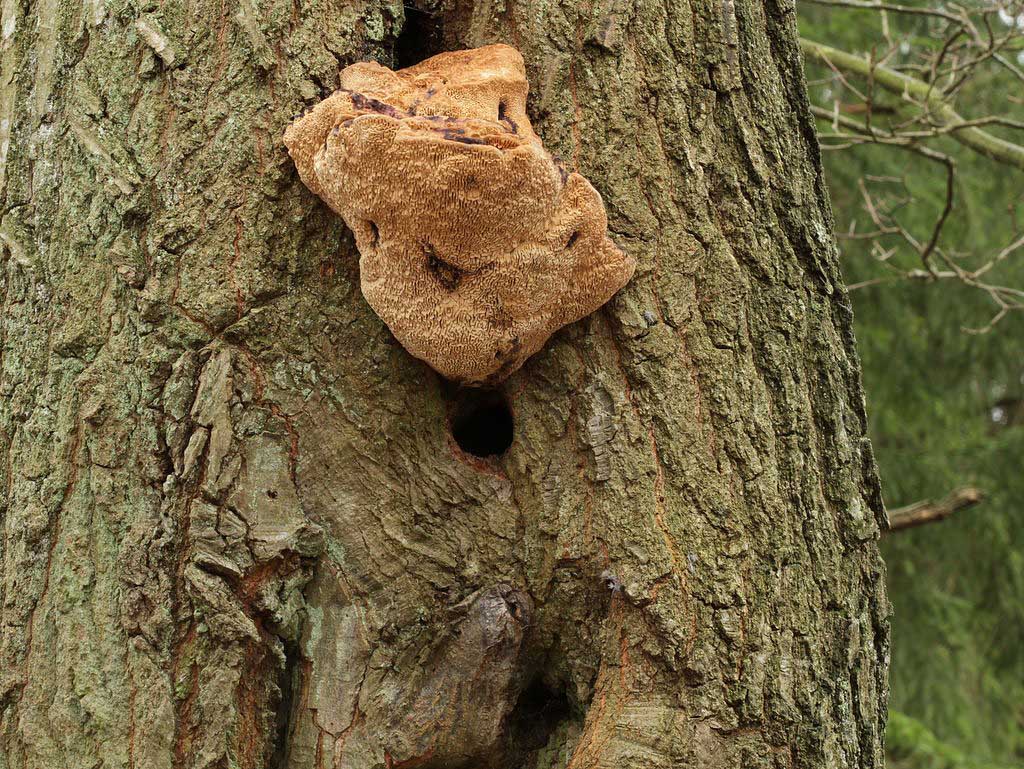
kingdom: Fungi
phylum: Basidiomycota
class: Agaricomycetes
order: Polyporales
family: Fomitopsidaceae
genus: Daedalea
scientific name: Daedalea quercina
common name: ege-labyrintsvamp
